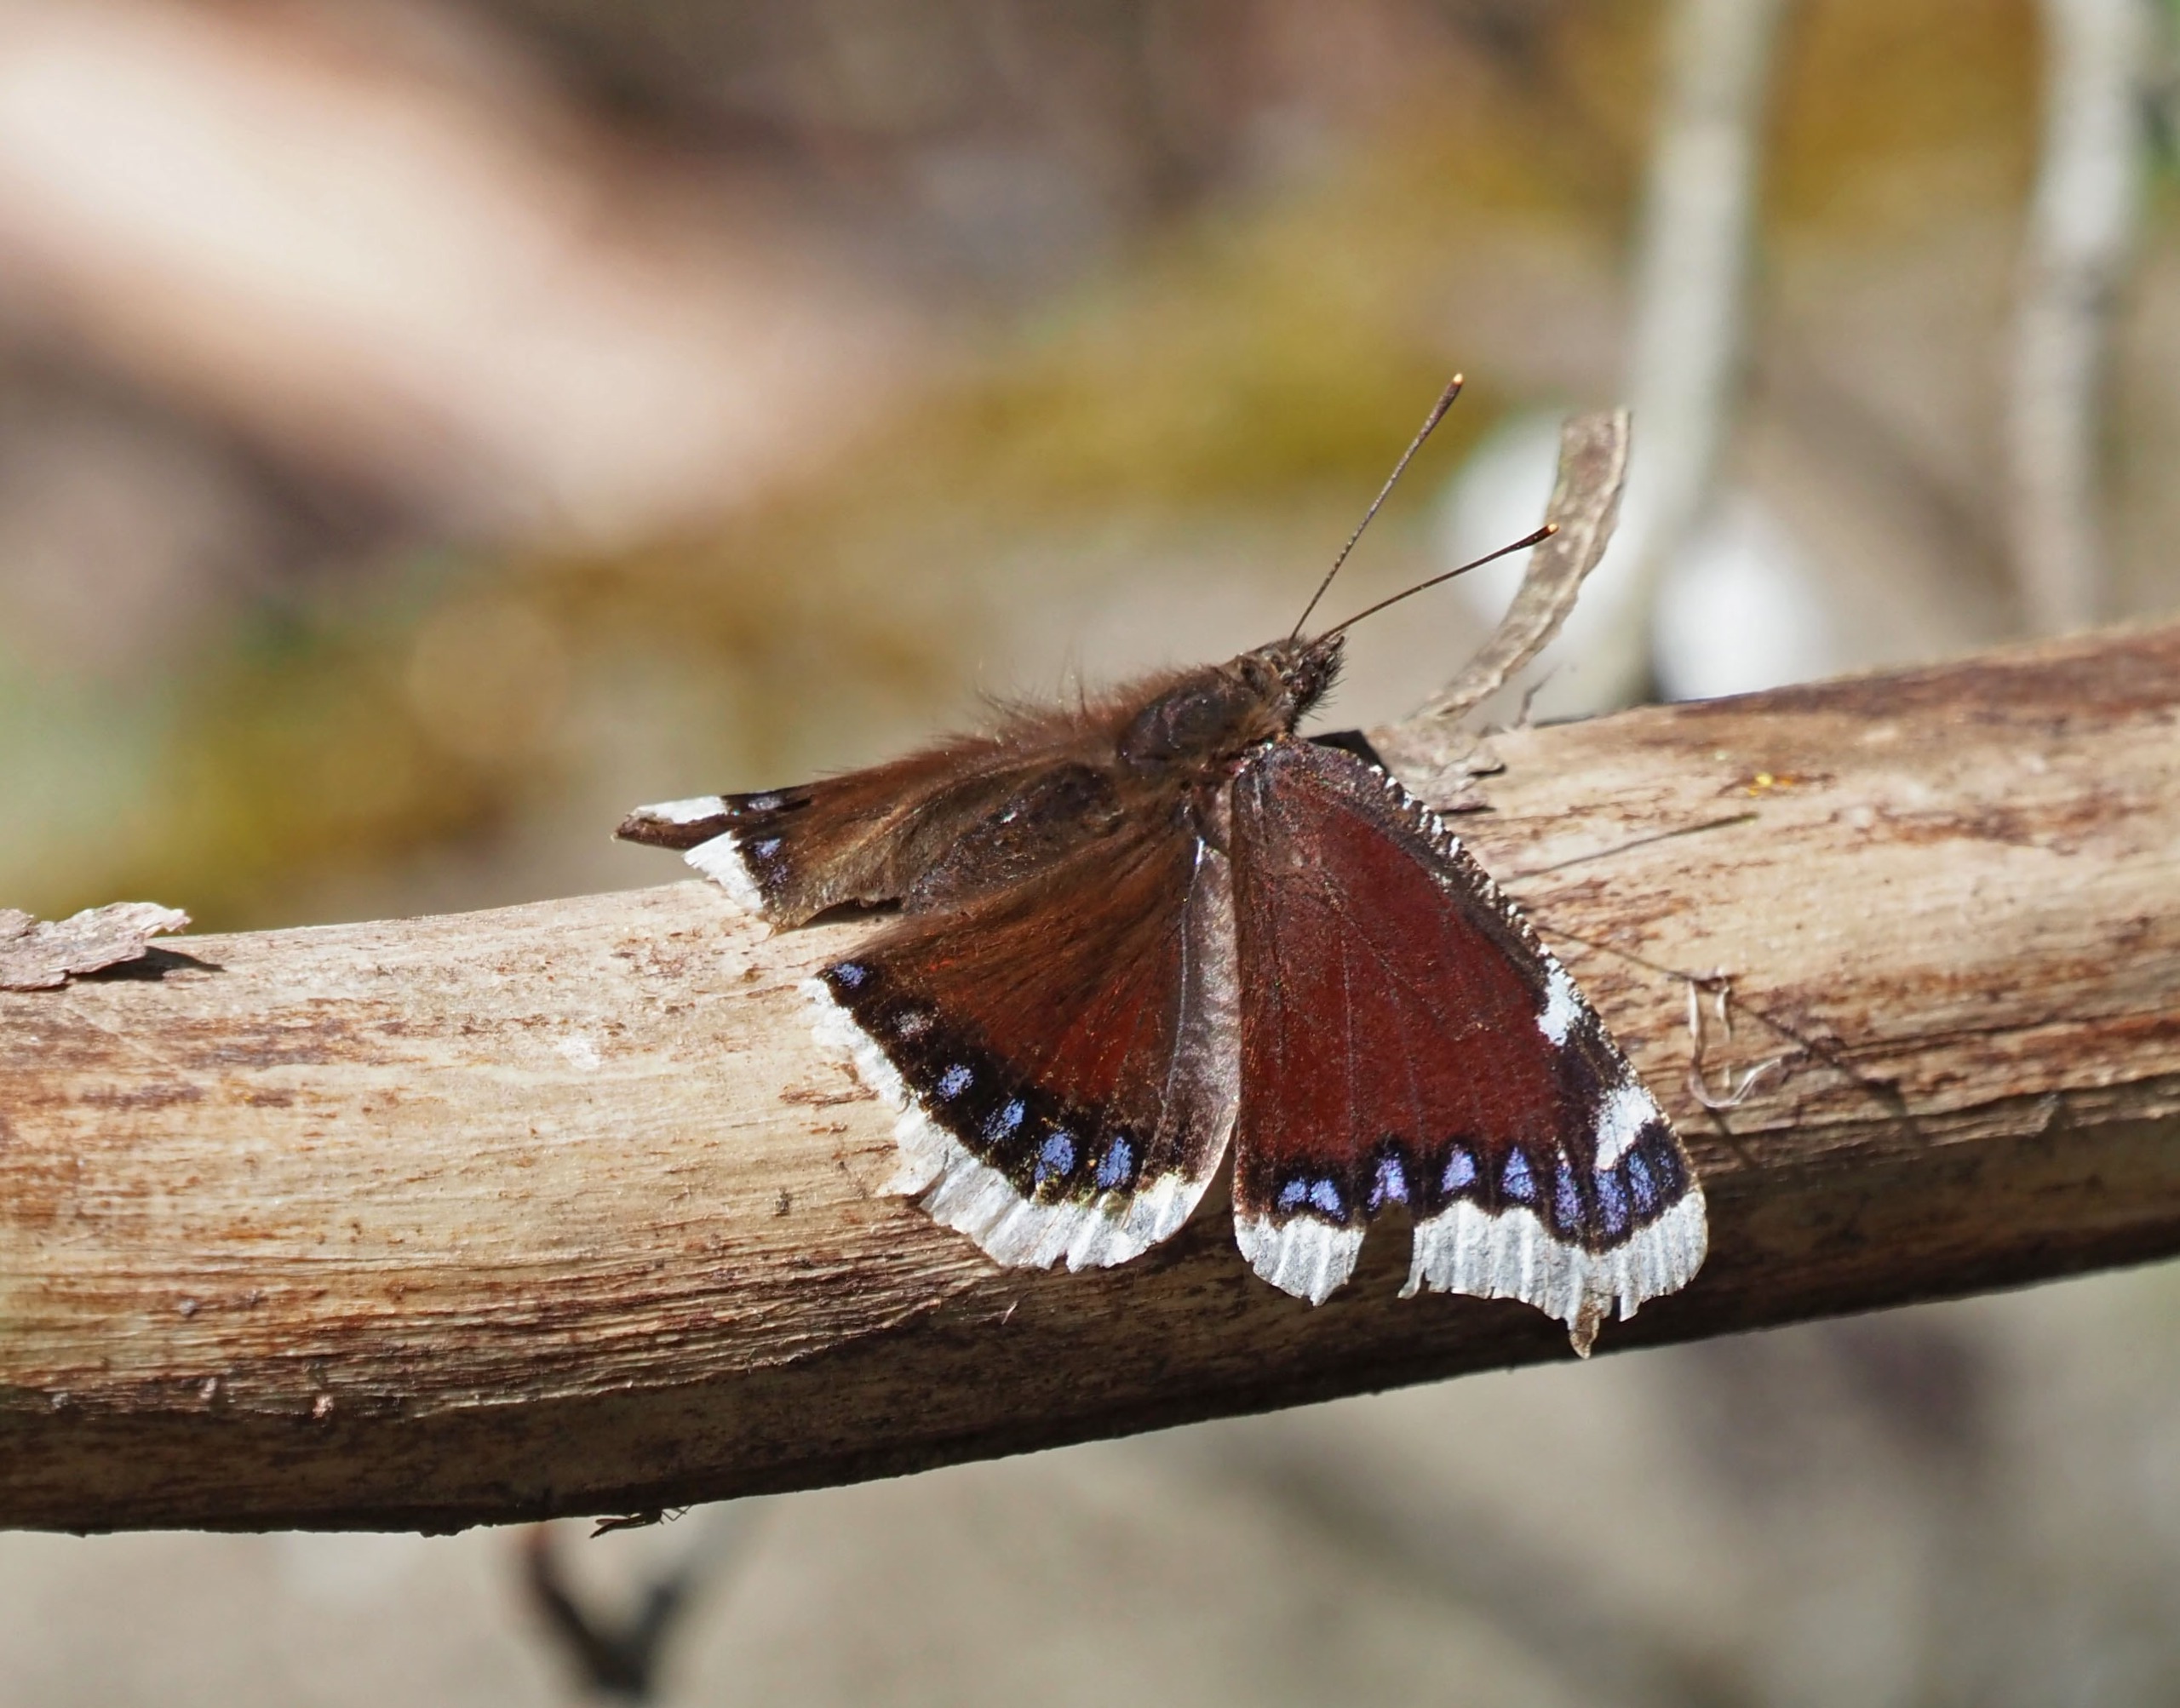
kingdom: Animalia
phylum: Arthropoda
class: Insecta
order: Lepidoptera
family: Nymphalidae
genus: Nymphalis
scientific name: Nymphalis antiopa
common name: Sørgekåbe
